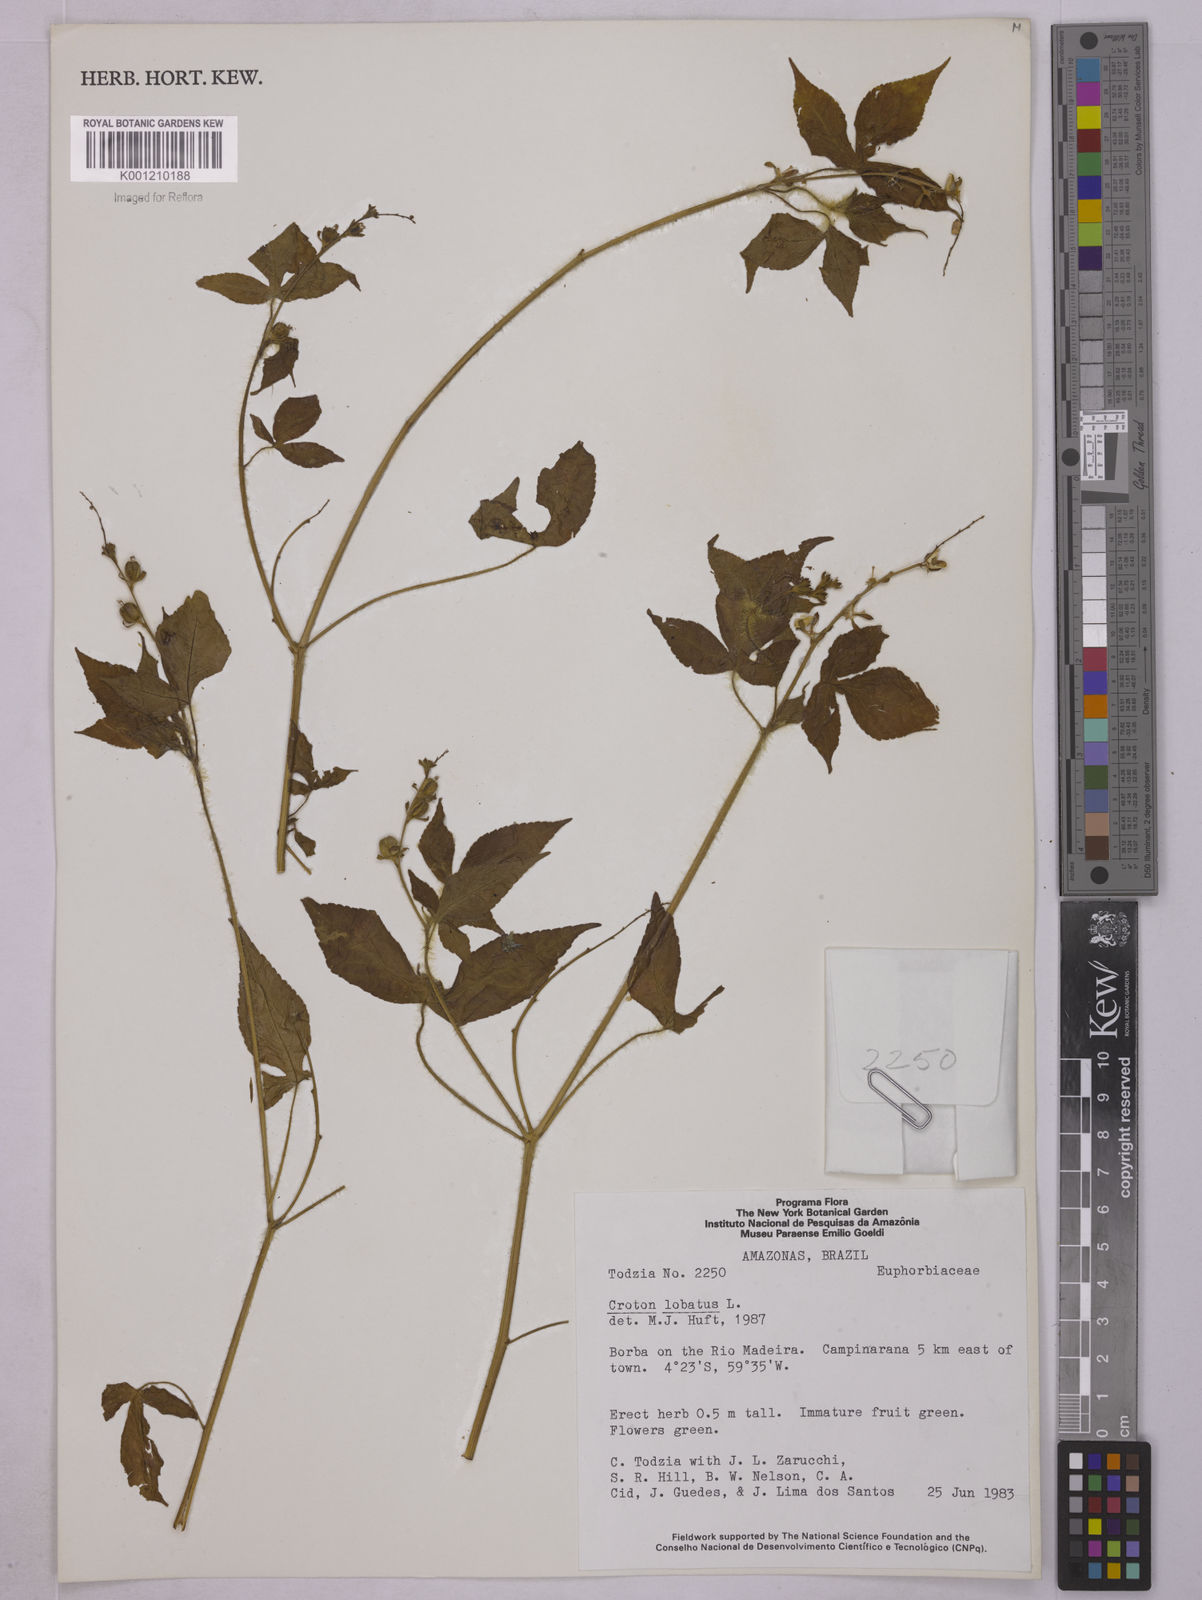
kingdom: Plantae
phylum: Tracheophyta
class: Magnoliopsida
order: Malpighiales
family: Euphorbiaceae
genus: Astraea
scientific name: Astraea lobata
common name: Lobed croton
